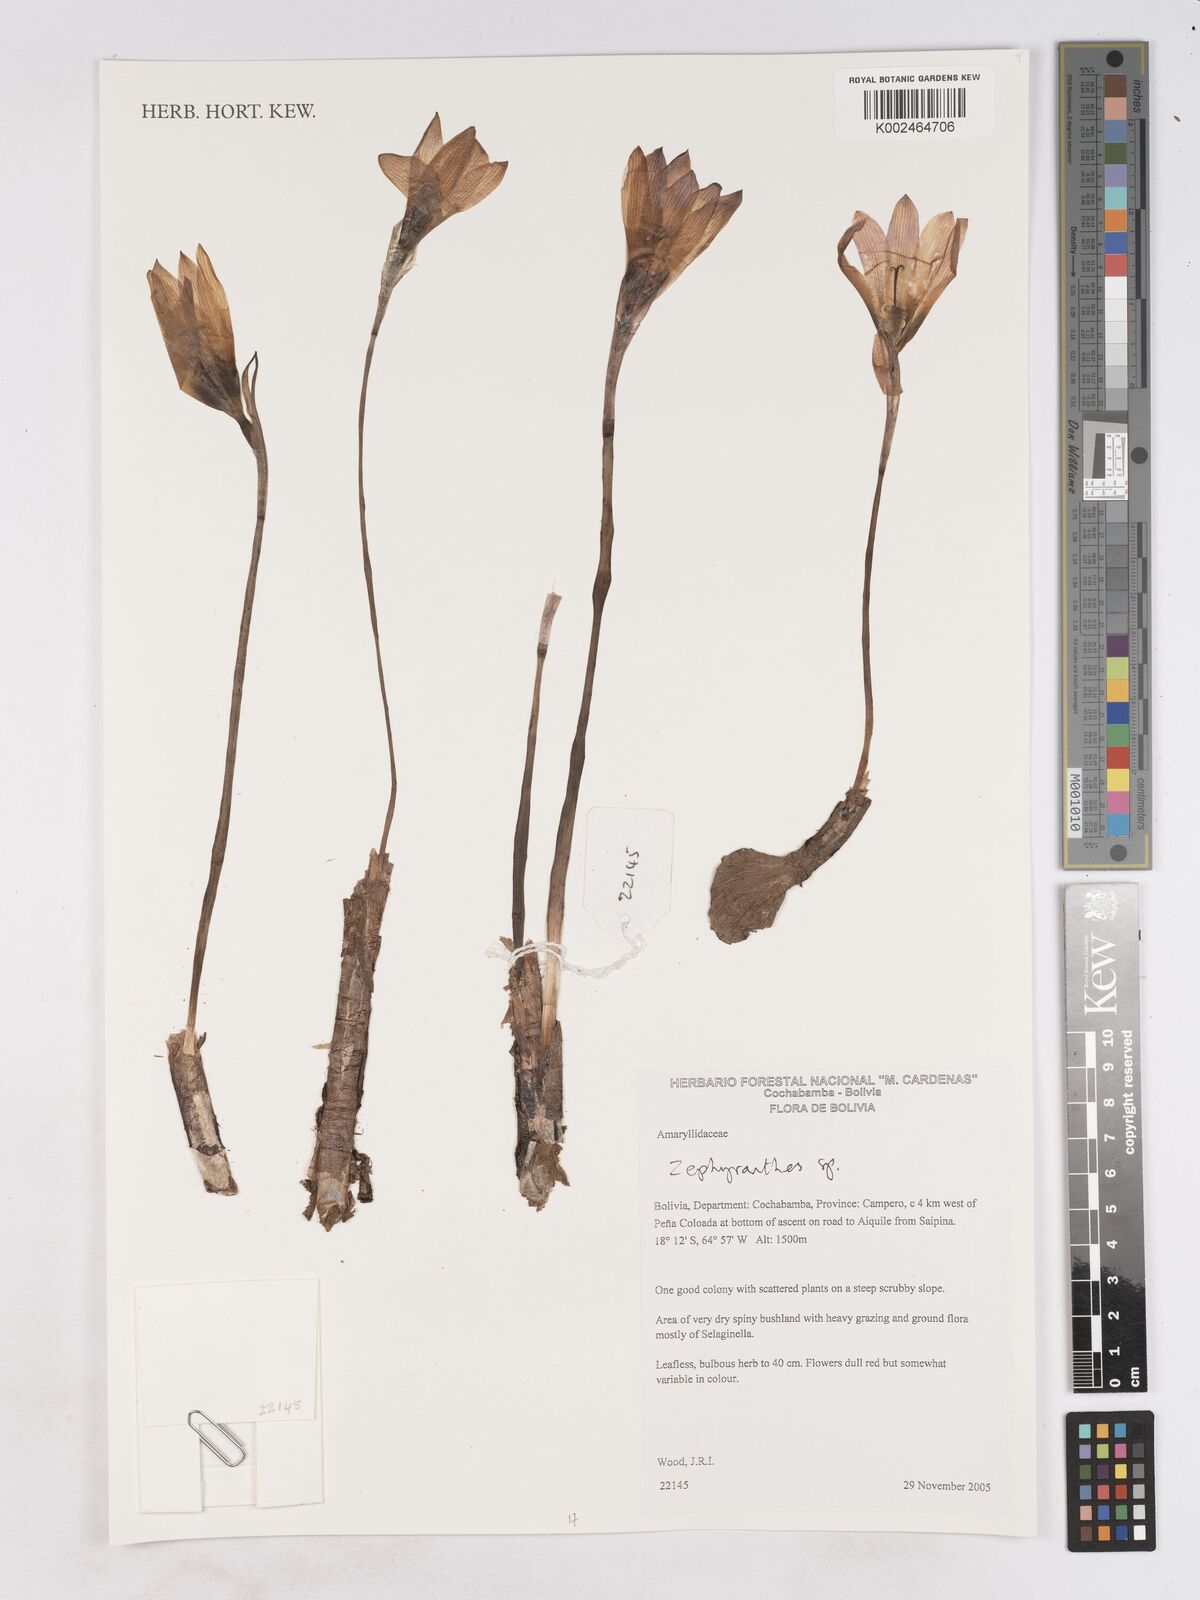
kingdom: Plantae
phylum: Tracheophyta
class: Liliopsida
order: Asparagales
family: Amaryllidaceae
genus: Zephyranthes
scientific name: Zephyranthes
